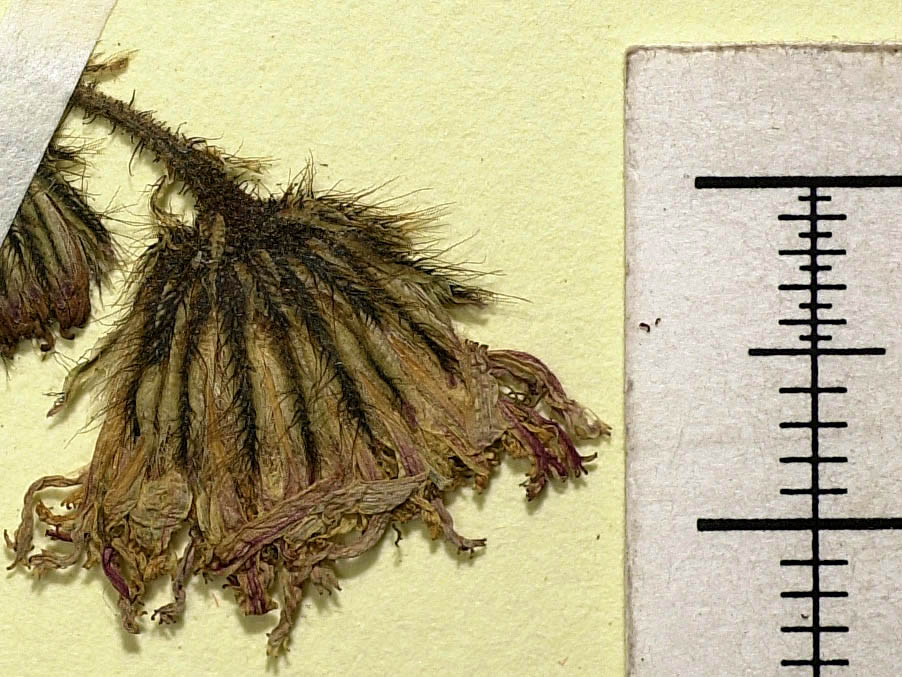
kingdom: Plantae
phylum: Tracheophyta
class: Magnoliopsida
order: Asterales
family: Asteraceae
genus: Pilosella
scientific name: Pilosella notha
